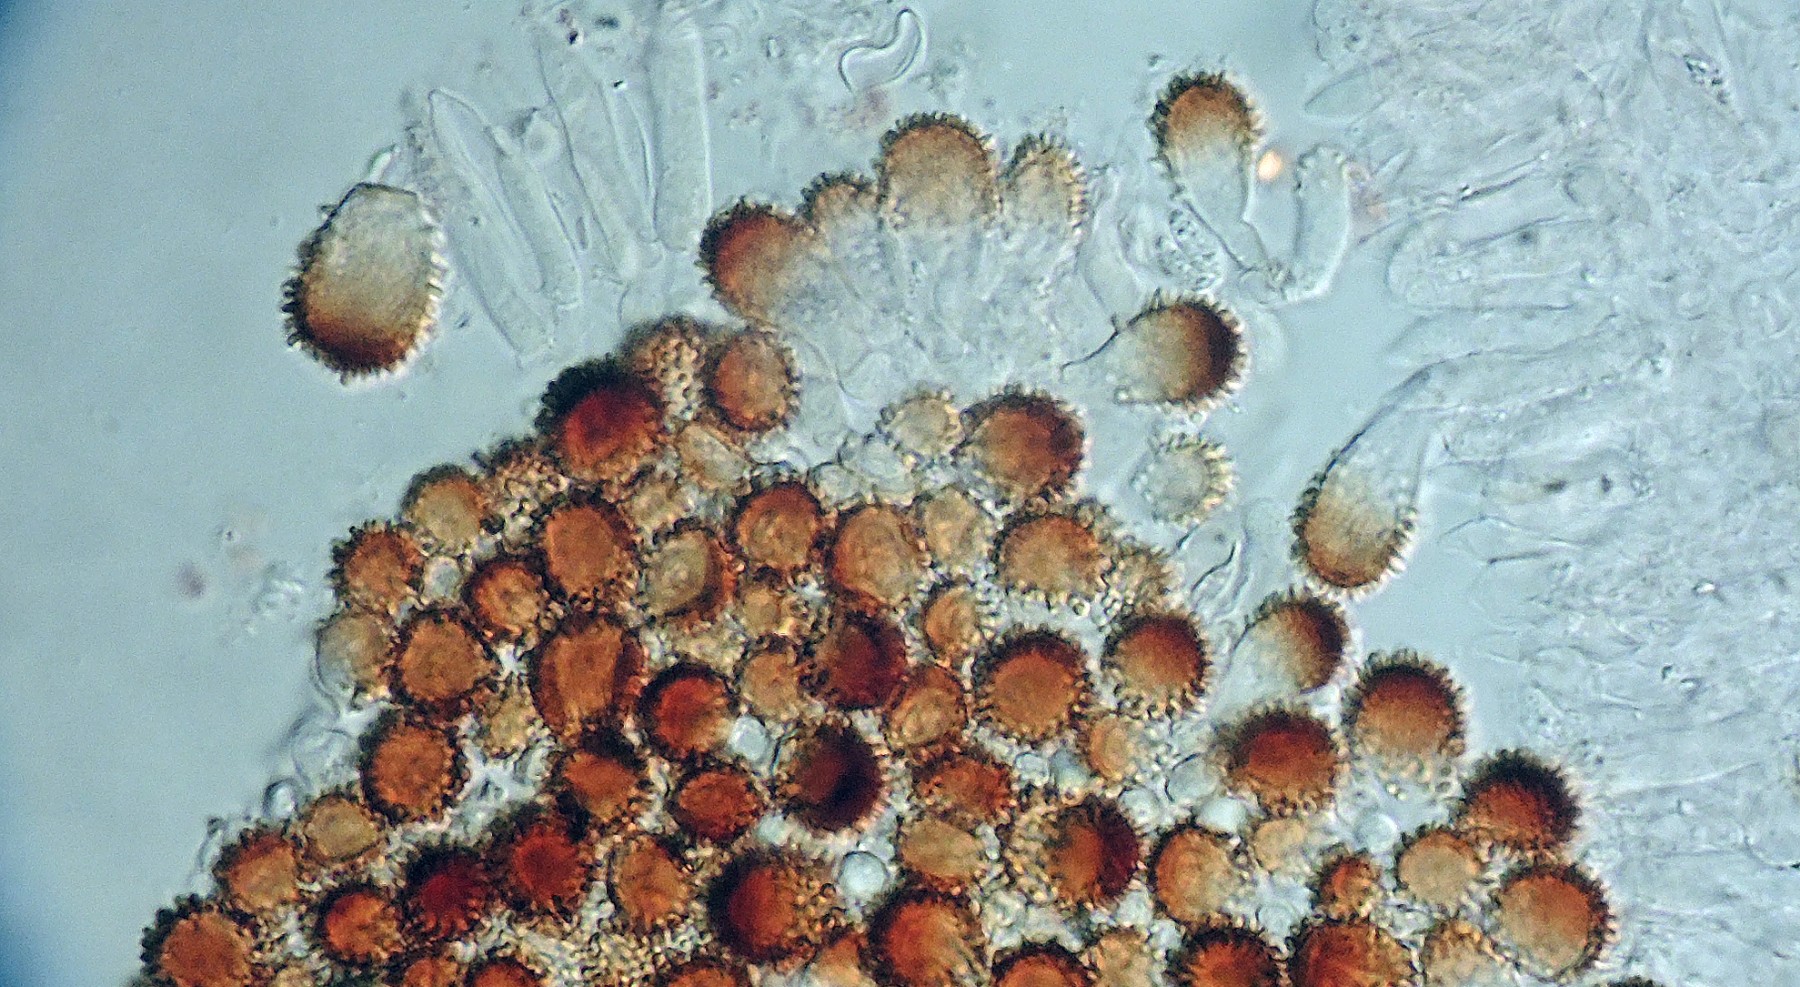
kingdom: Fungi
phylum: Basidiomycota
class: Agaricomycetes
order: Agaricales
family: Physalacriaceae
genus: Cryptomarasmius
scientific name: Cryptomarasmius corbariensis
